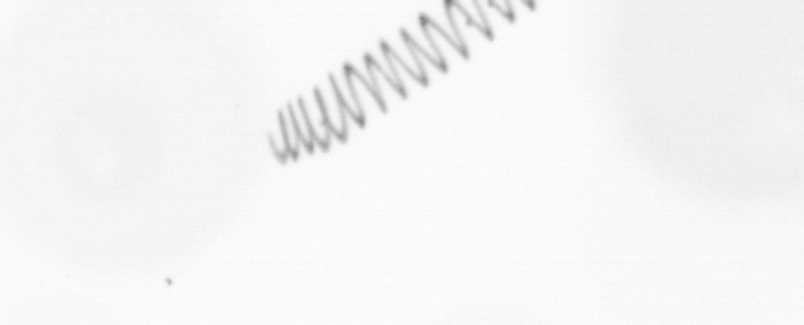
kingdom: Chromista
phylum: Ochrophyta
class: Bacillariophyceae
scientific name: Bacillariophyceae
